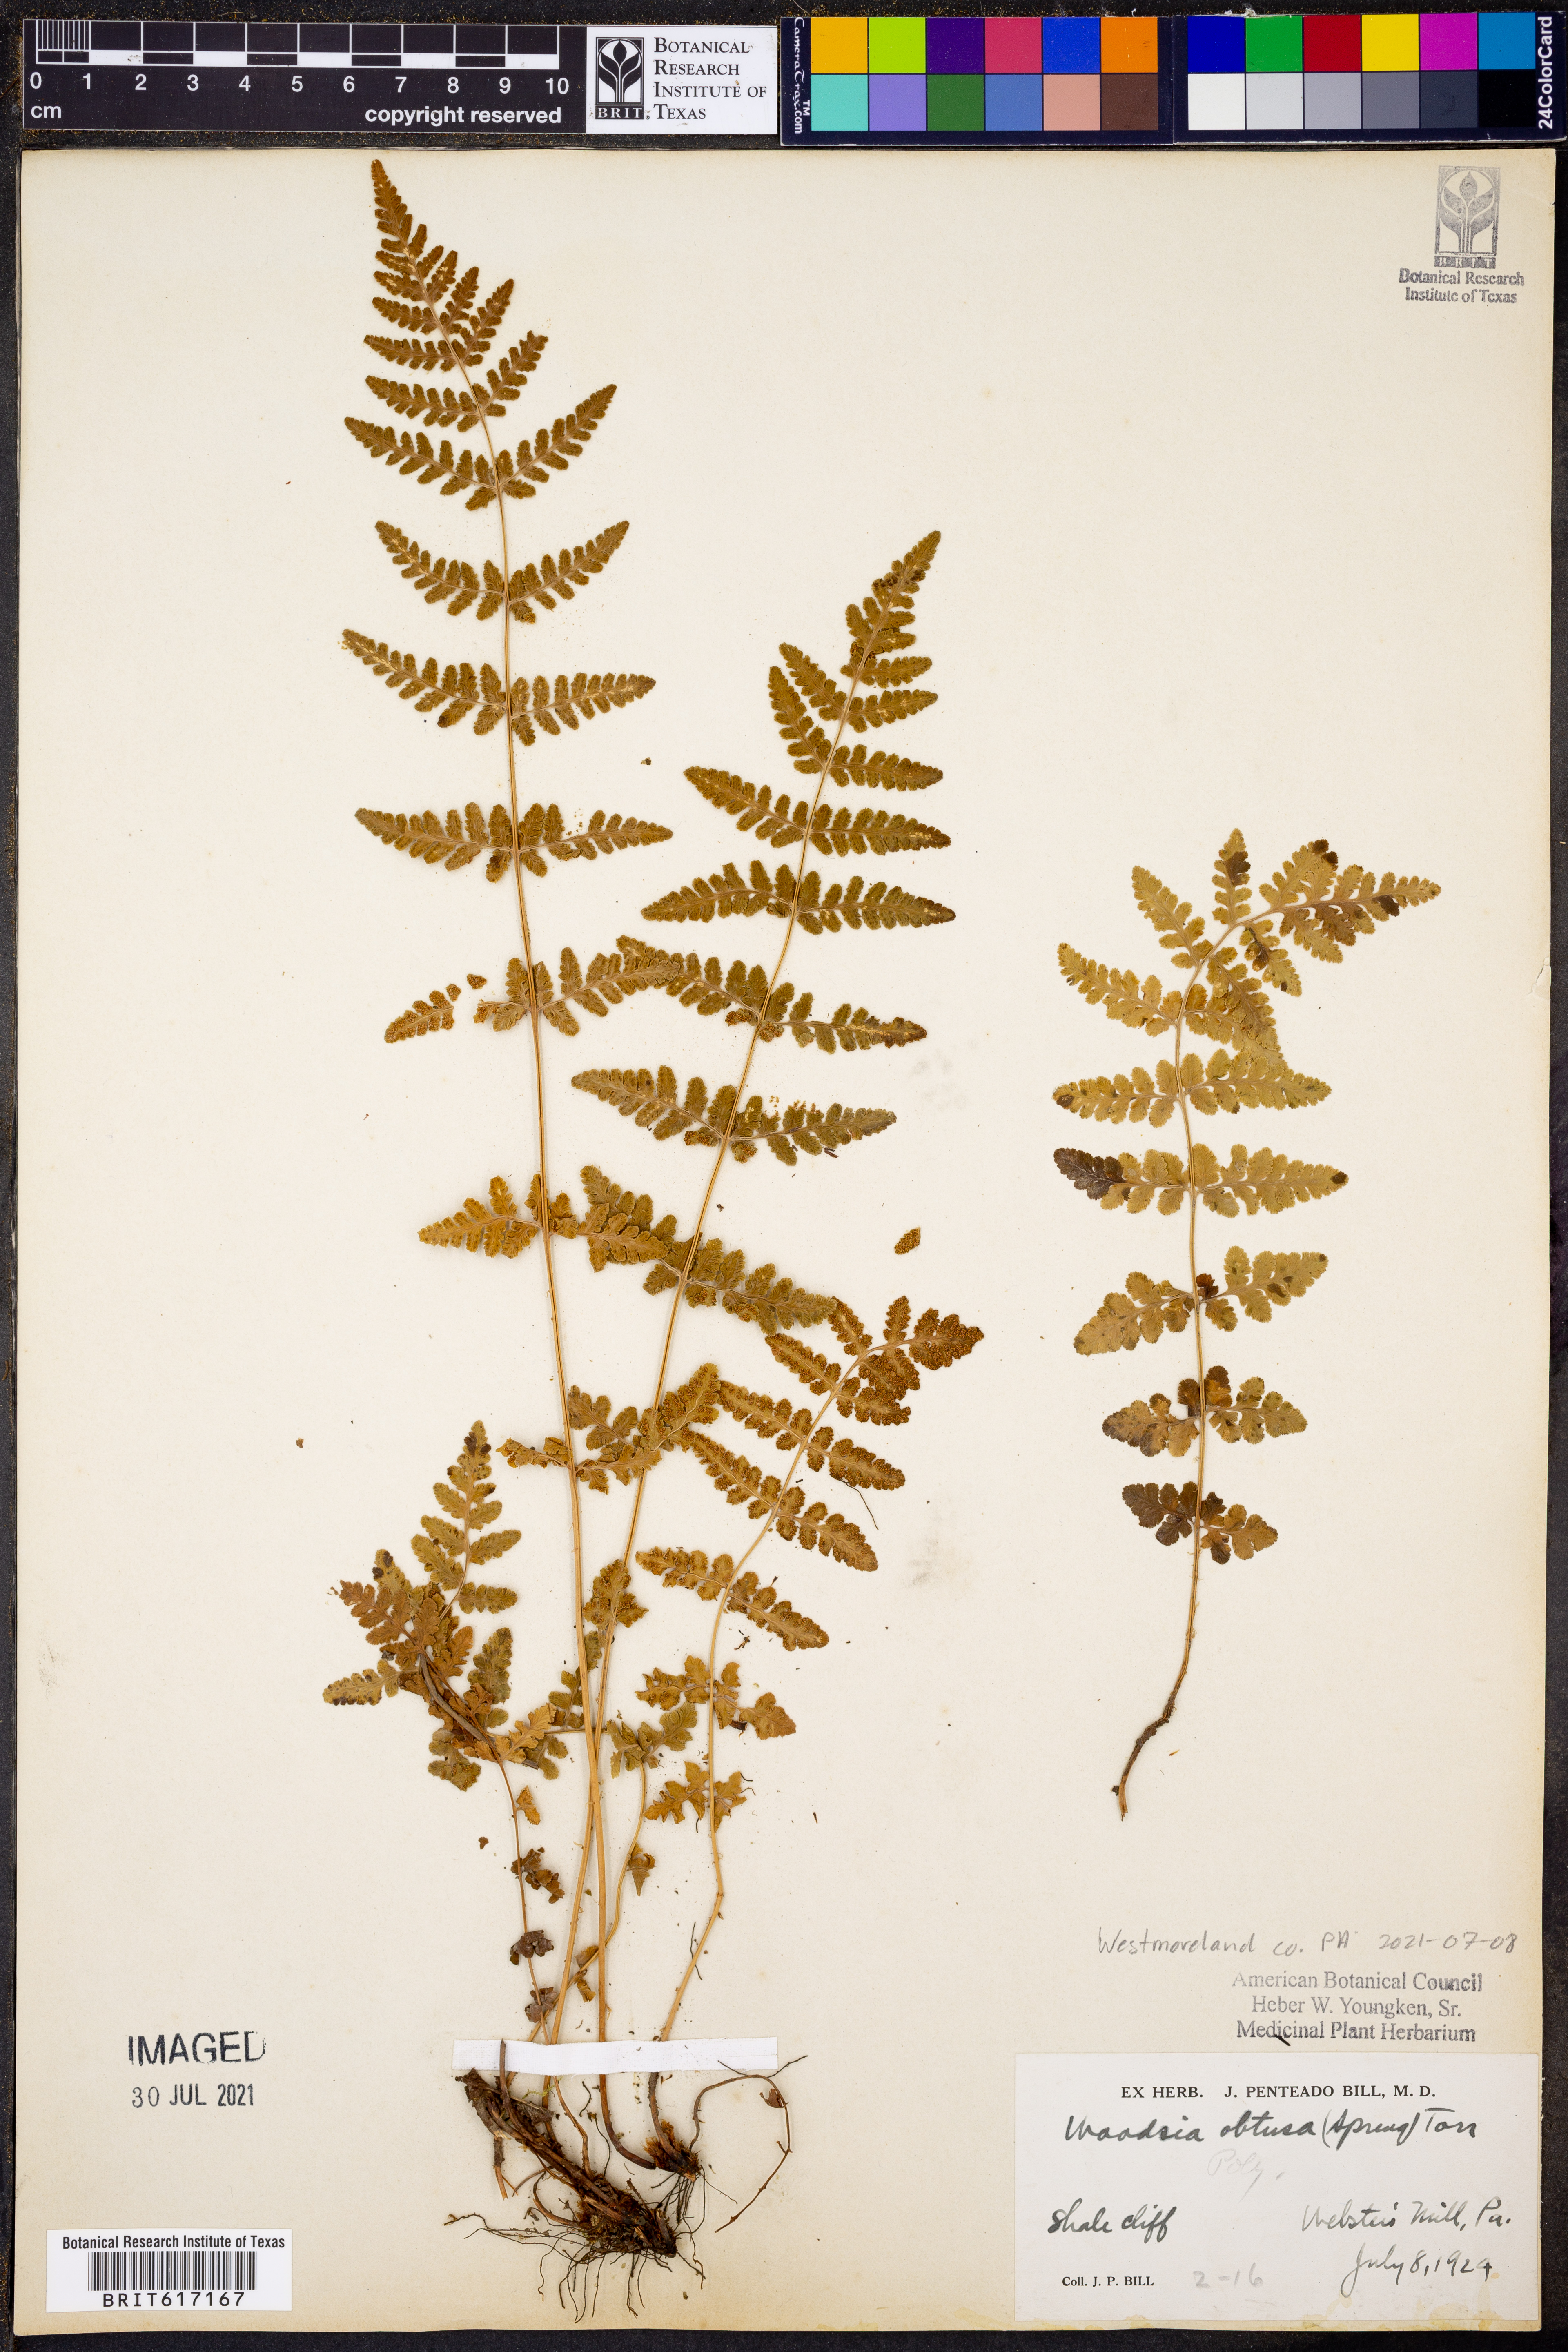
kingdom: Plantae
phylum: Tracheophyta
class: Polypodiopsida
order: Polypodiales
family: Woodsiaceae
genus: Physematium
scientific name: Physematium obtusum
